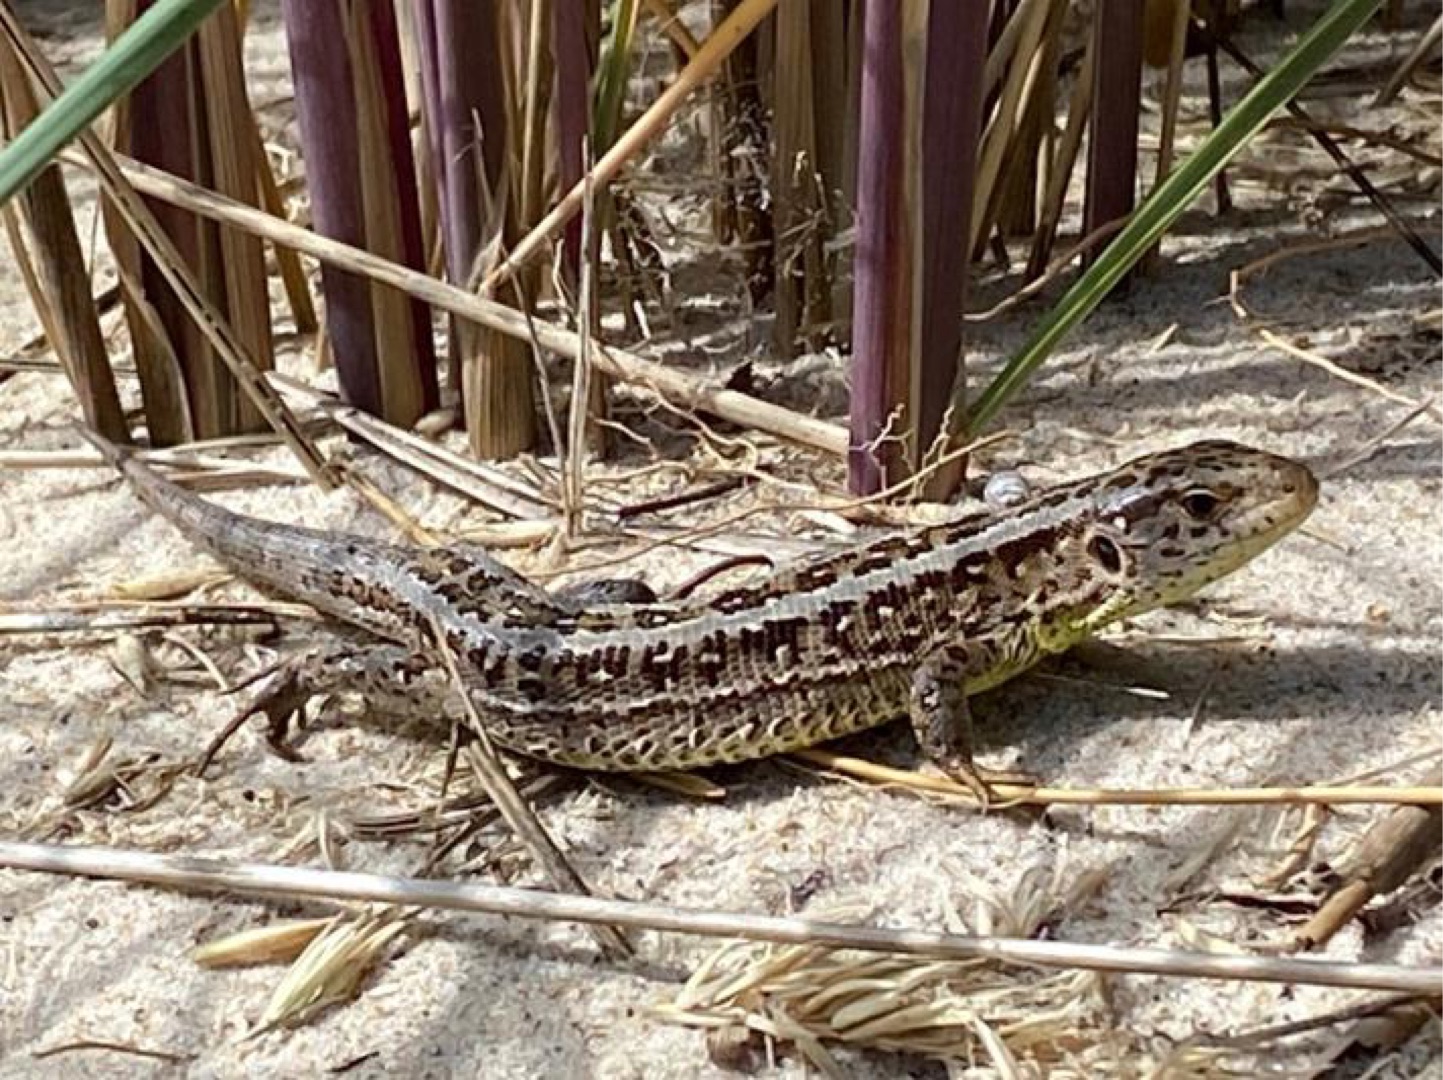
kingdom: Animalia
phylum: Chordata
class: Squamata
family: Lacertidae
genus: Lacerta
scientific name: Lacerta agilis
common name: Markfirben
